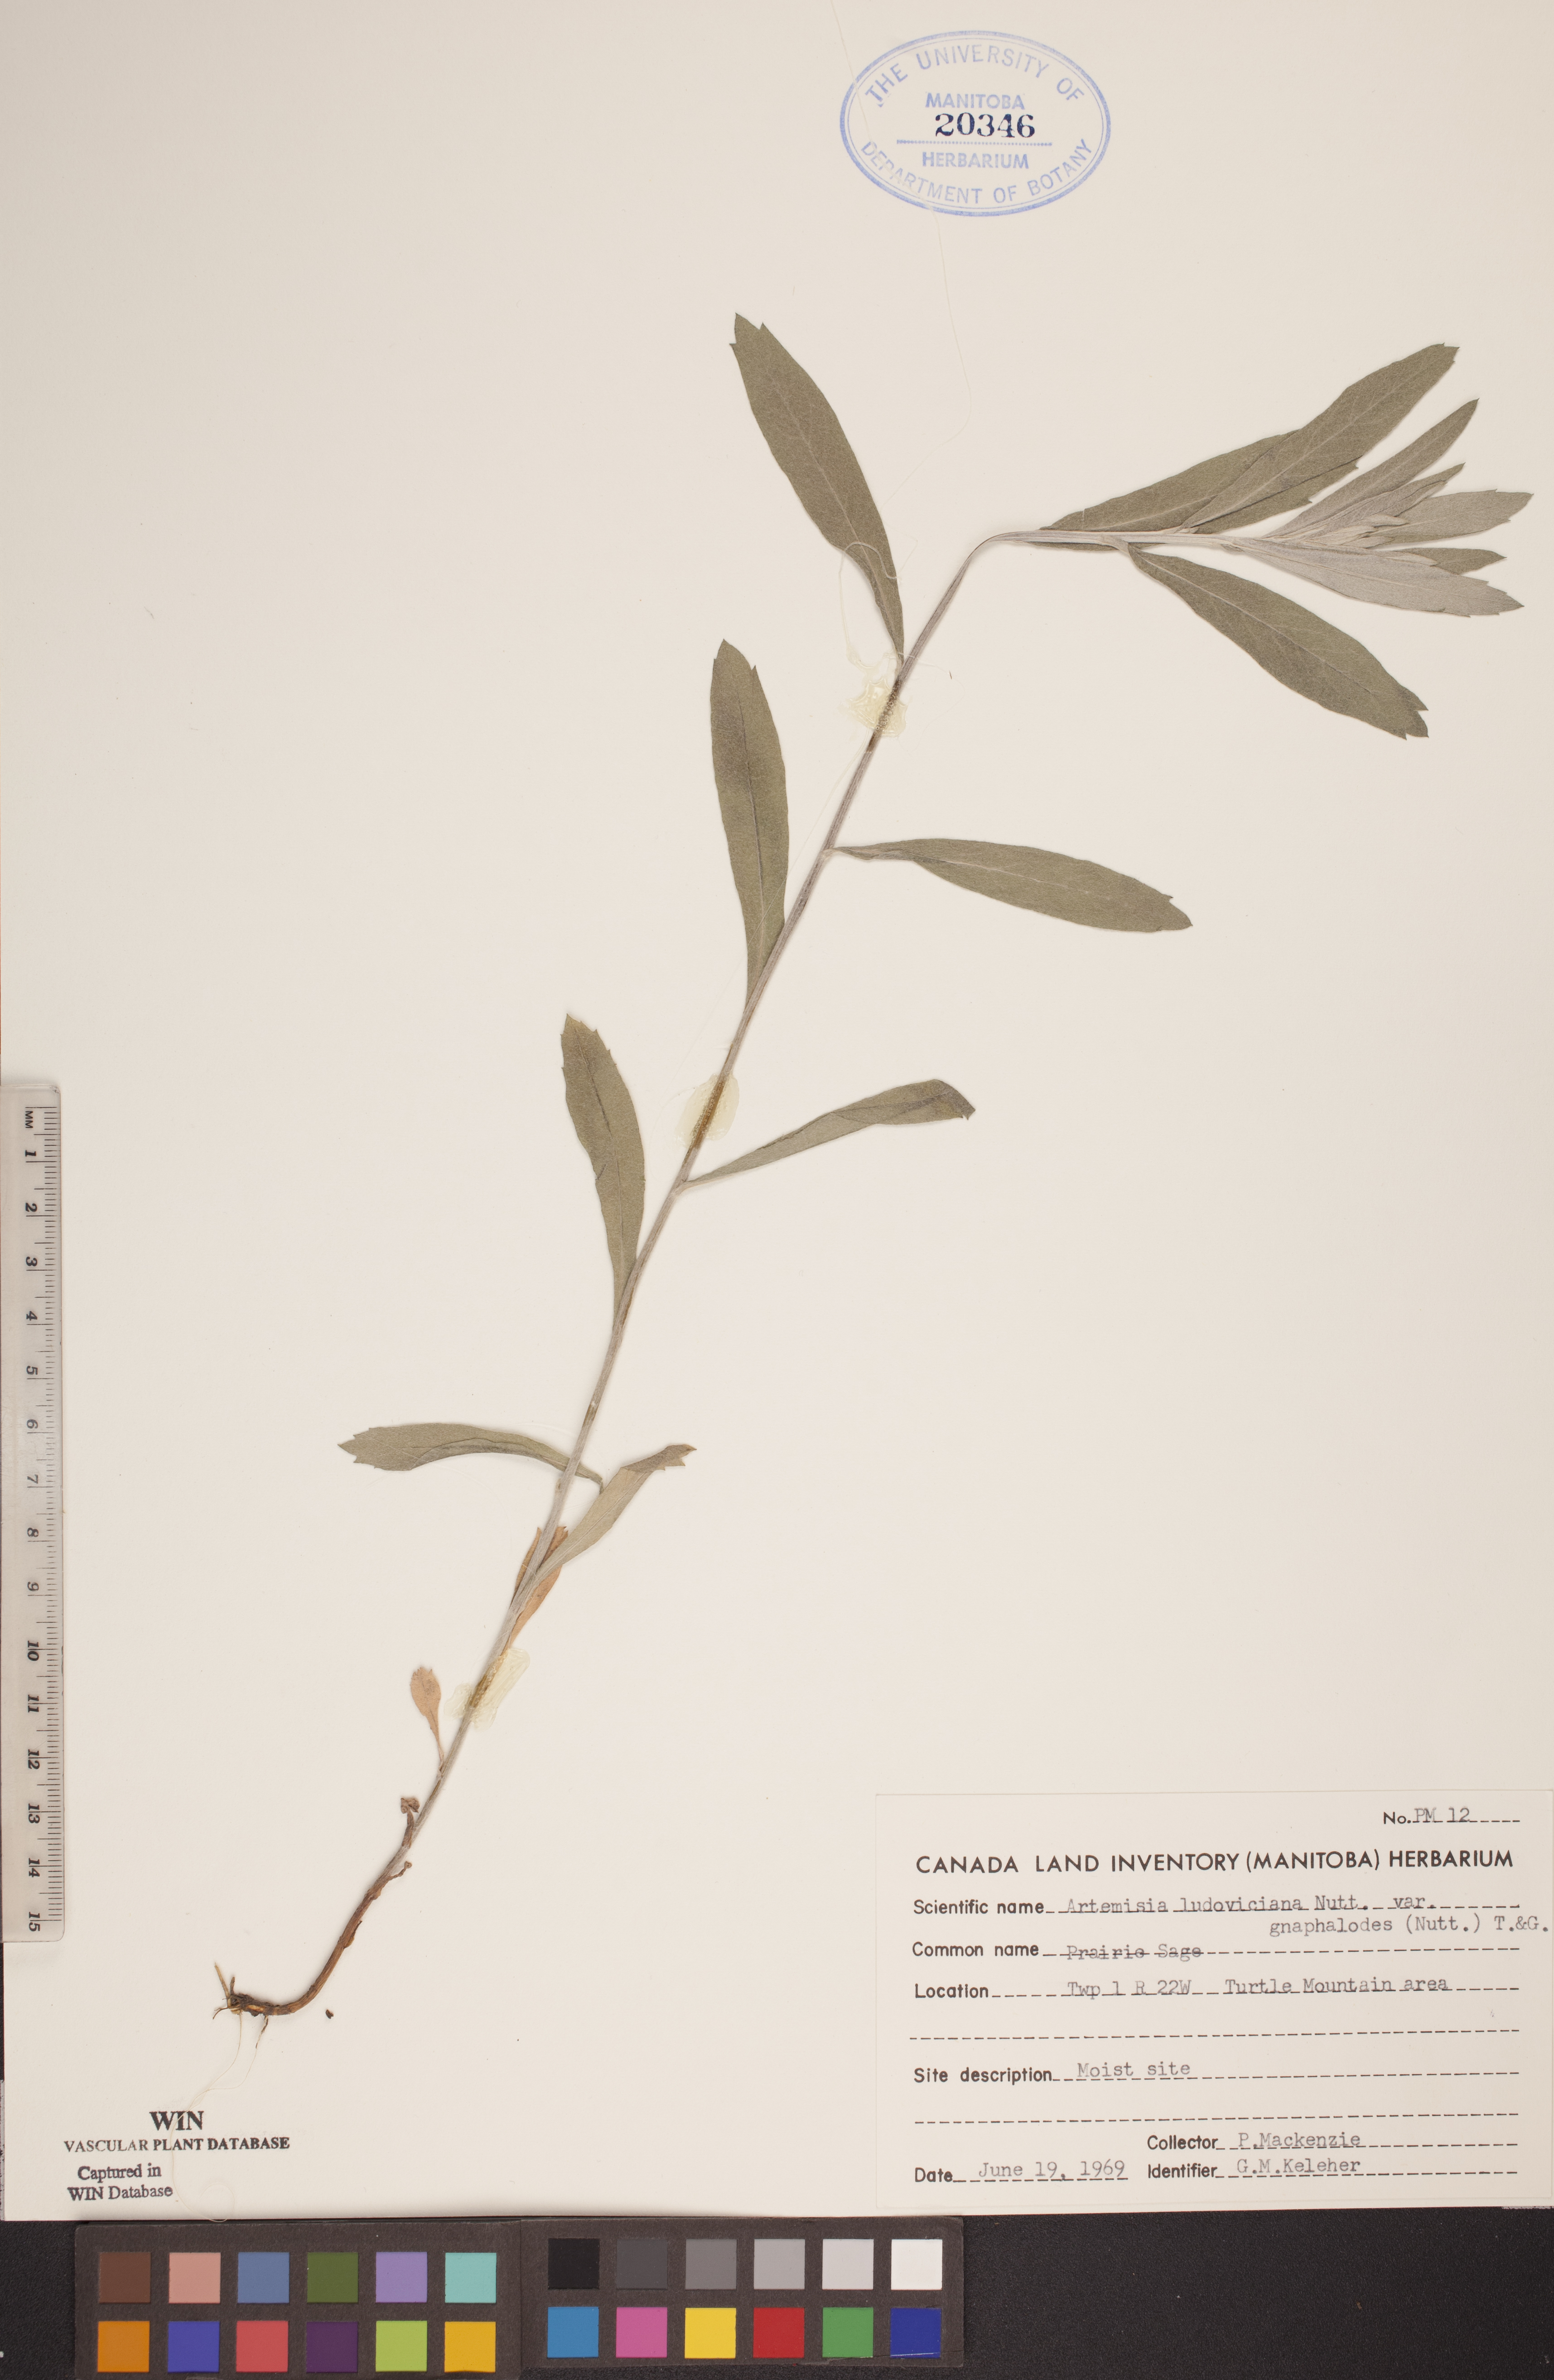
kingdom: Plantae
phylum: Tracheophyta
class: Magnoliopsida
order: Asterales
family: Asteraceae
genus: Artemisia
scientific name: Artemisia ludoviciana
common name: Western mugwort
